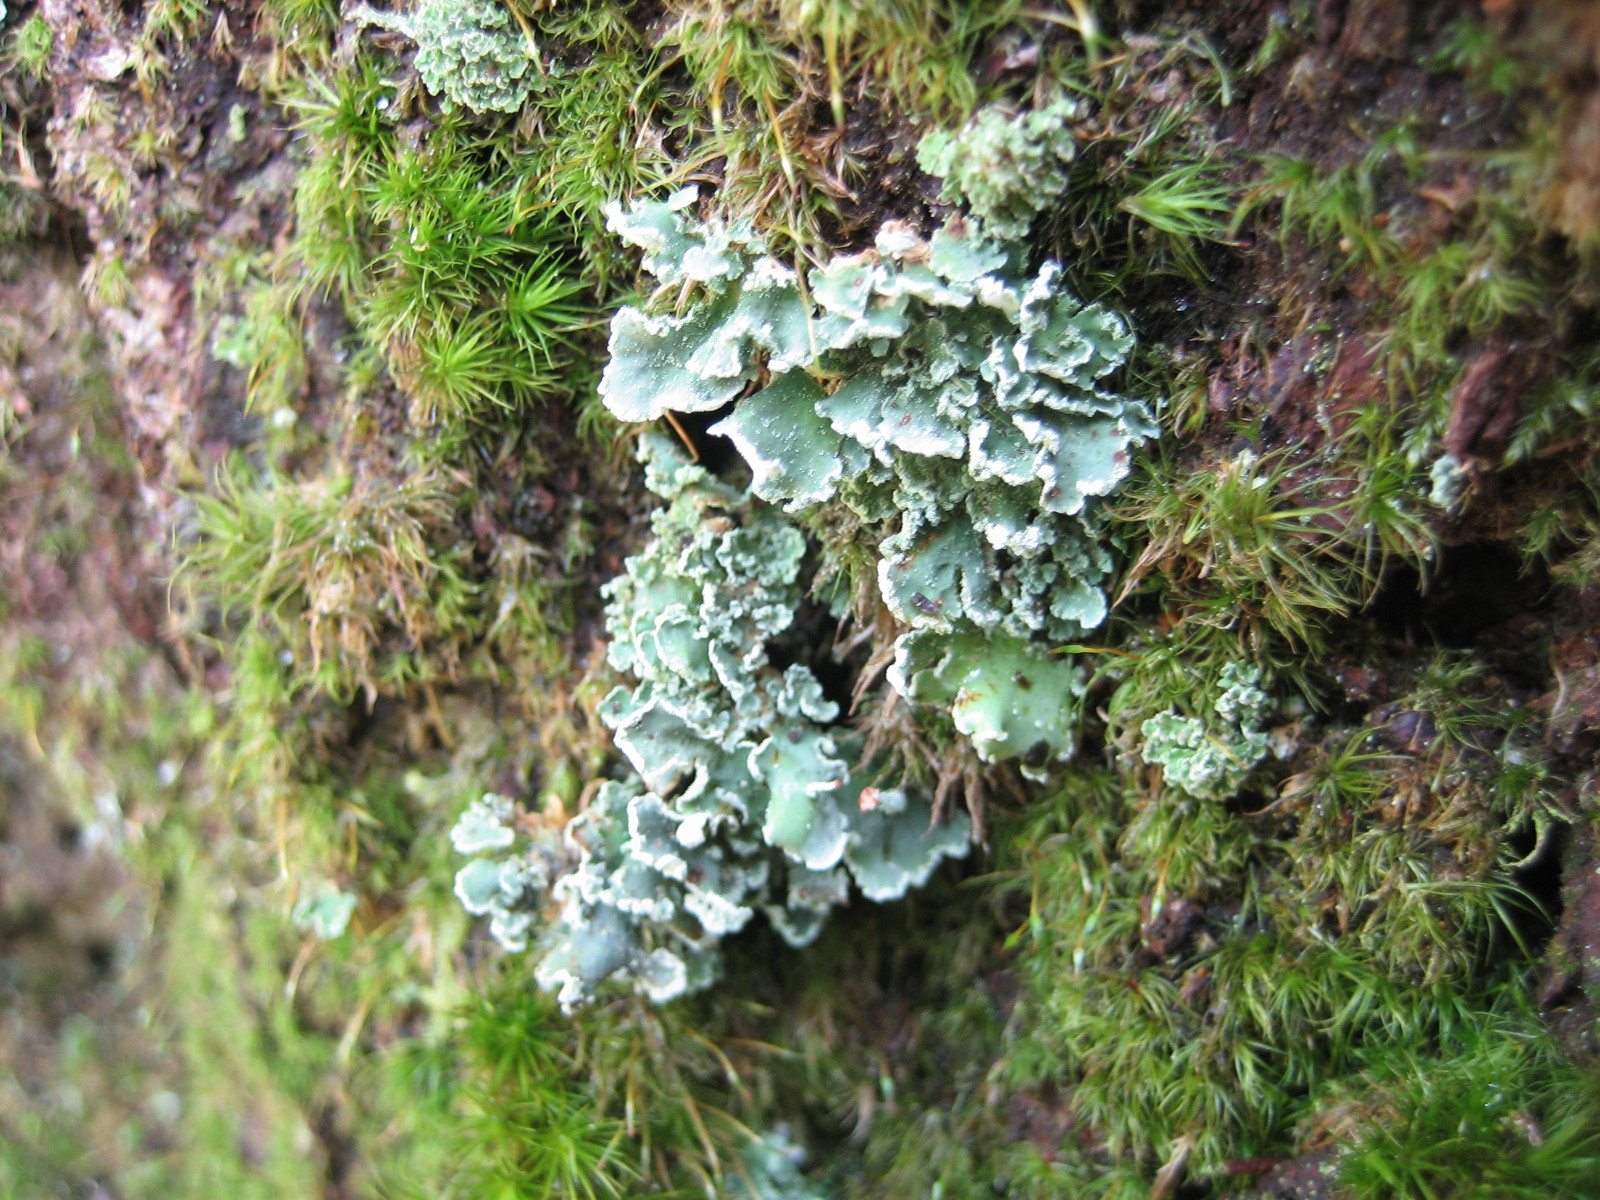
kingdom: Fungi
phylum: Ascomycota
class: Lecanoromycetes
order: Lecanorales
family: Cladoniaceae
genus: Cladonia
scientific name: Cladonia digitata
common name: finger-bægerlav
